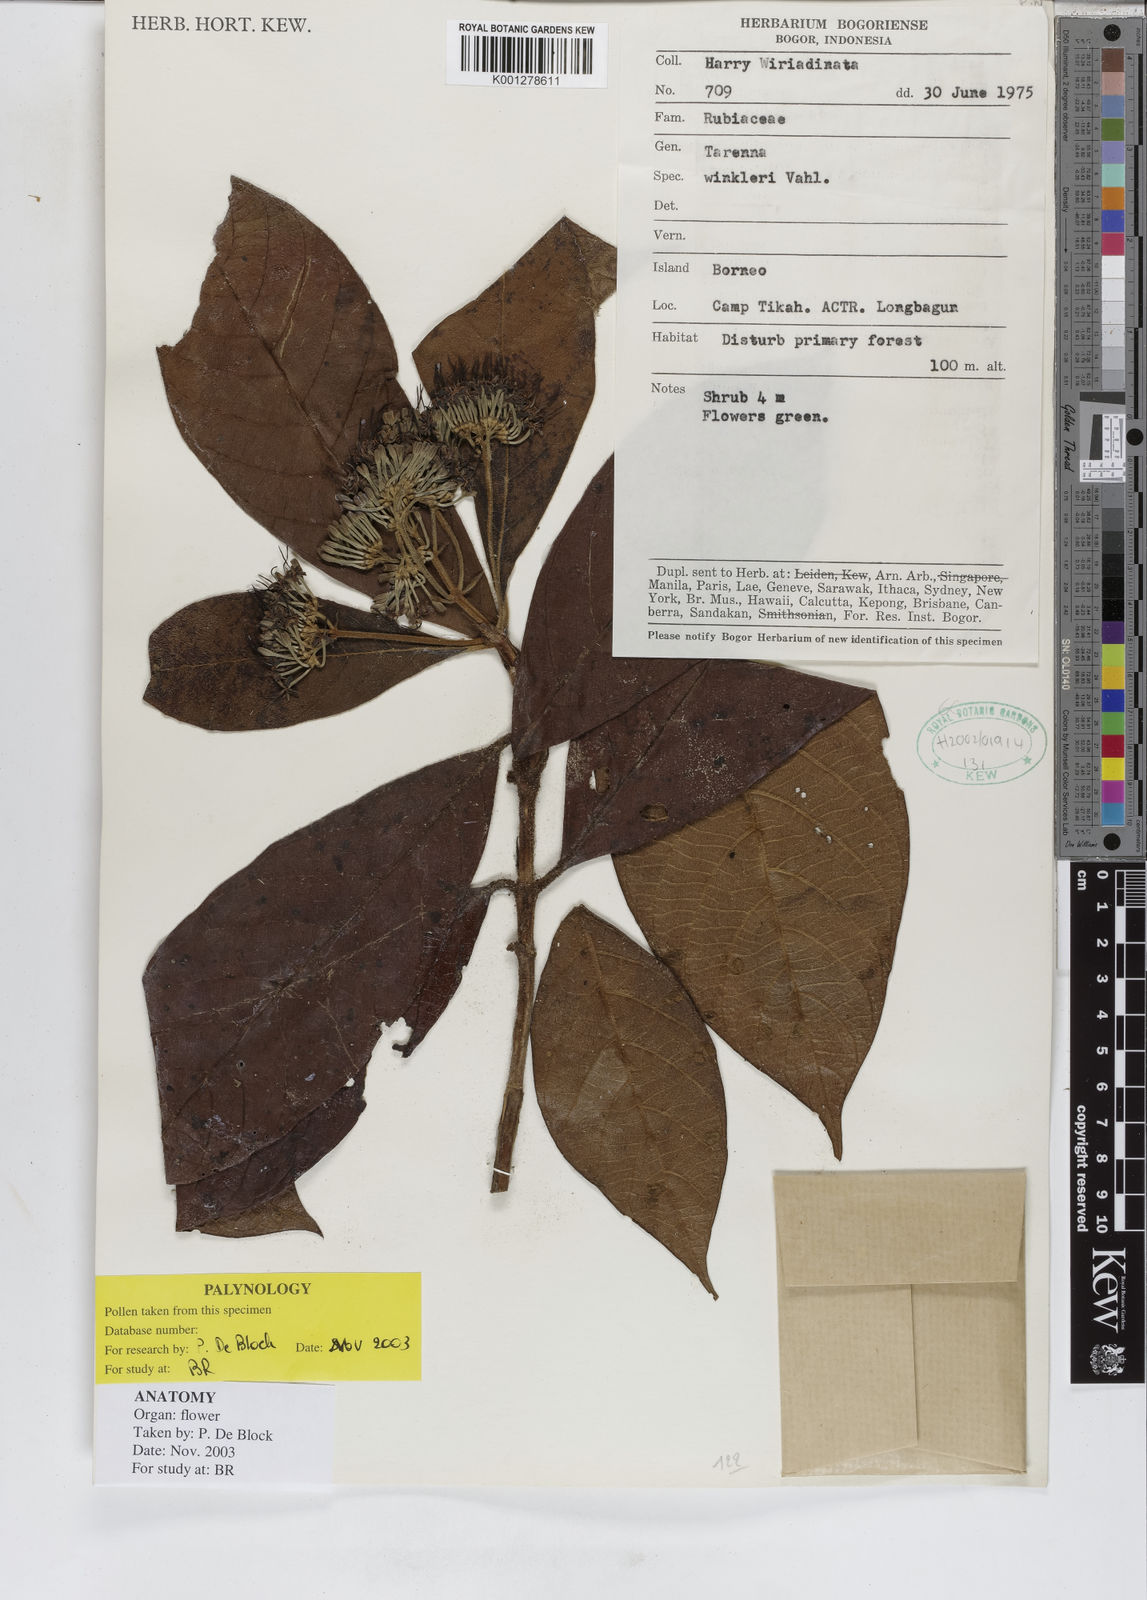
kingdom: Plantae
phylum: Tracheophyta
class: Magnoliopsida
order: Gentianales
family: Rubiaceae
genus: Tarenna
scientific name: Tarenna winkleri
